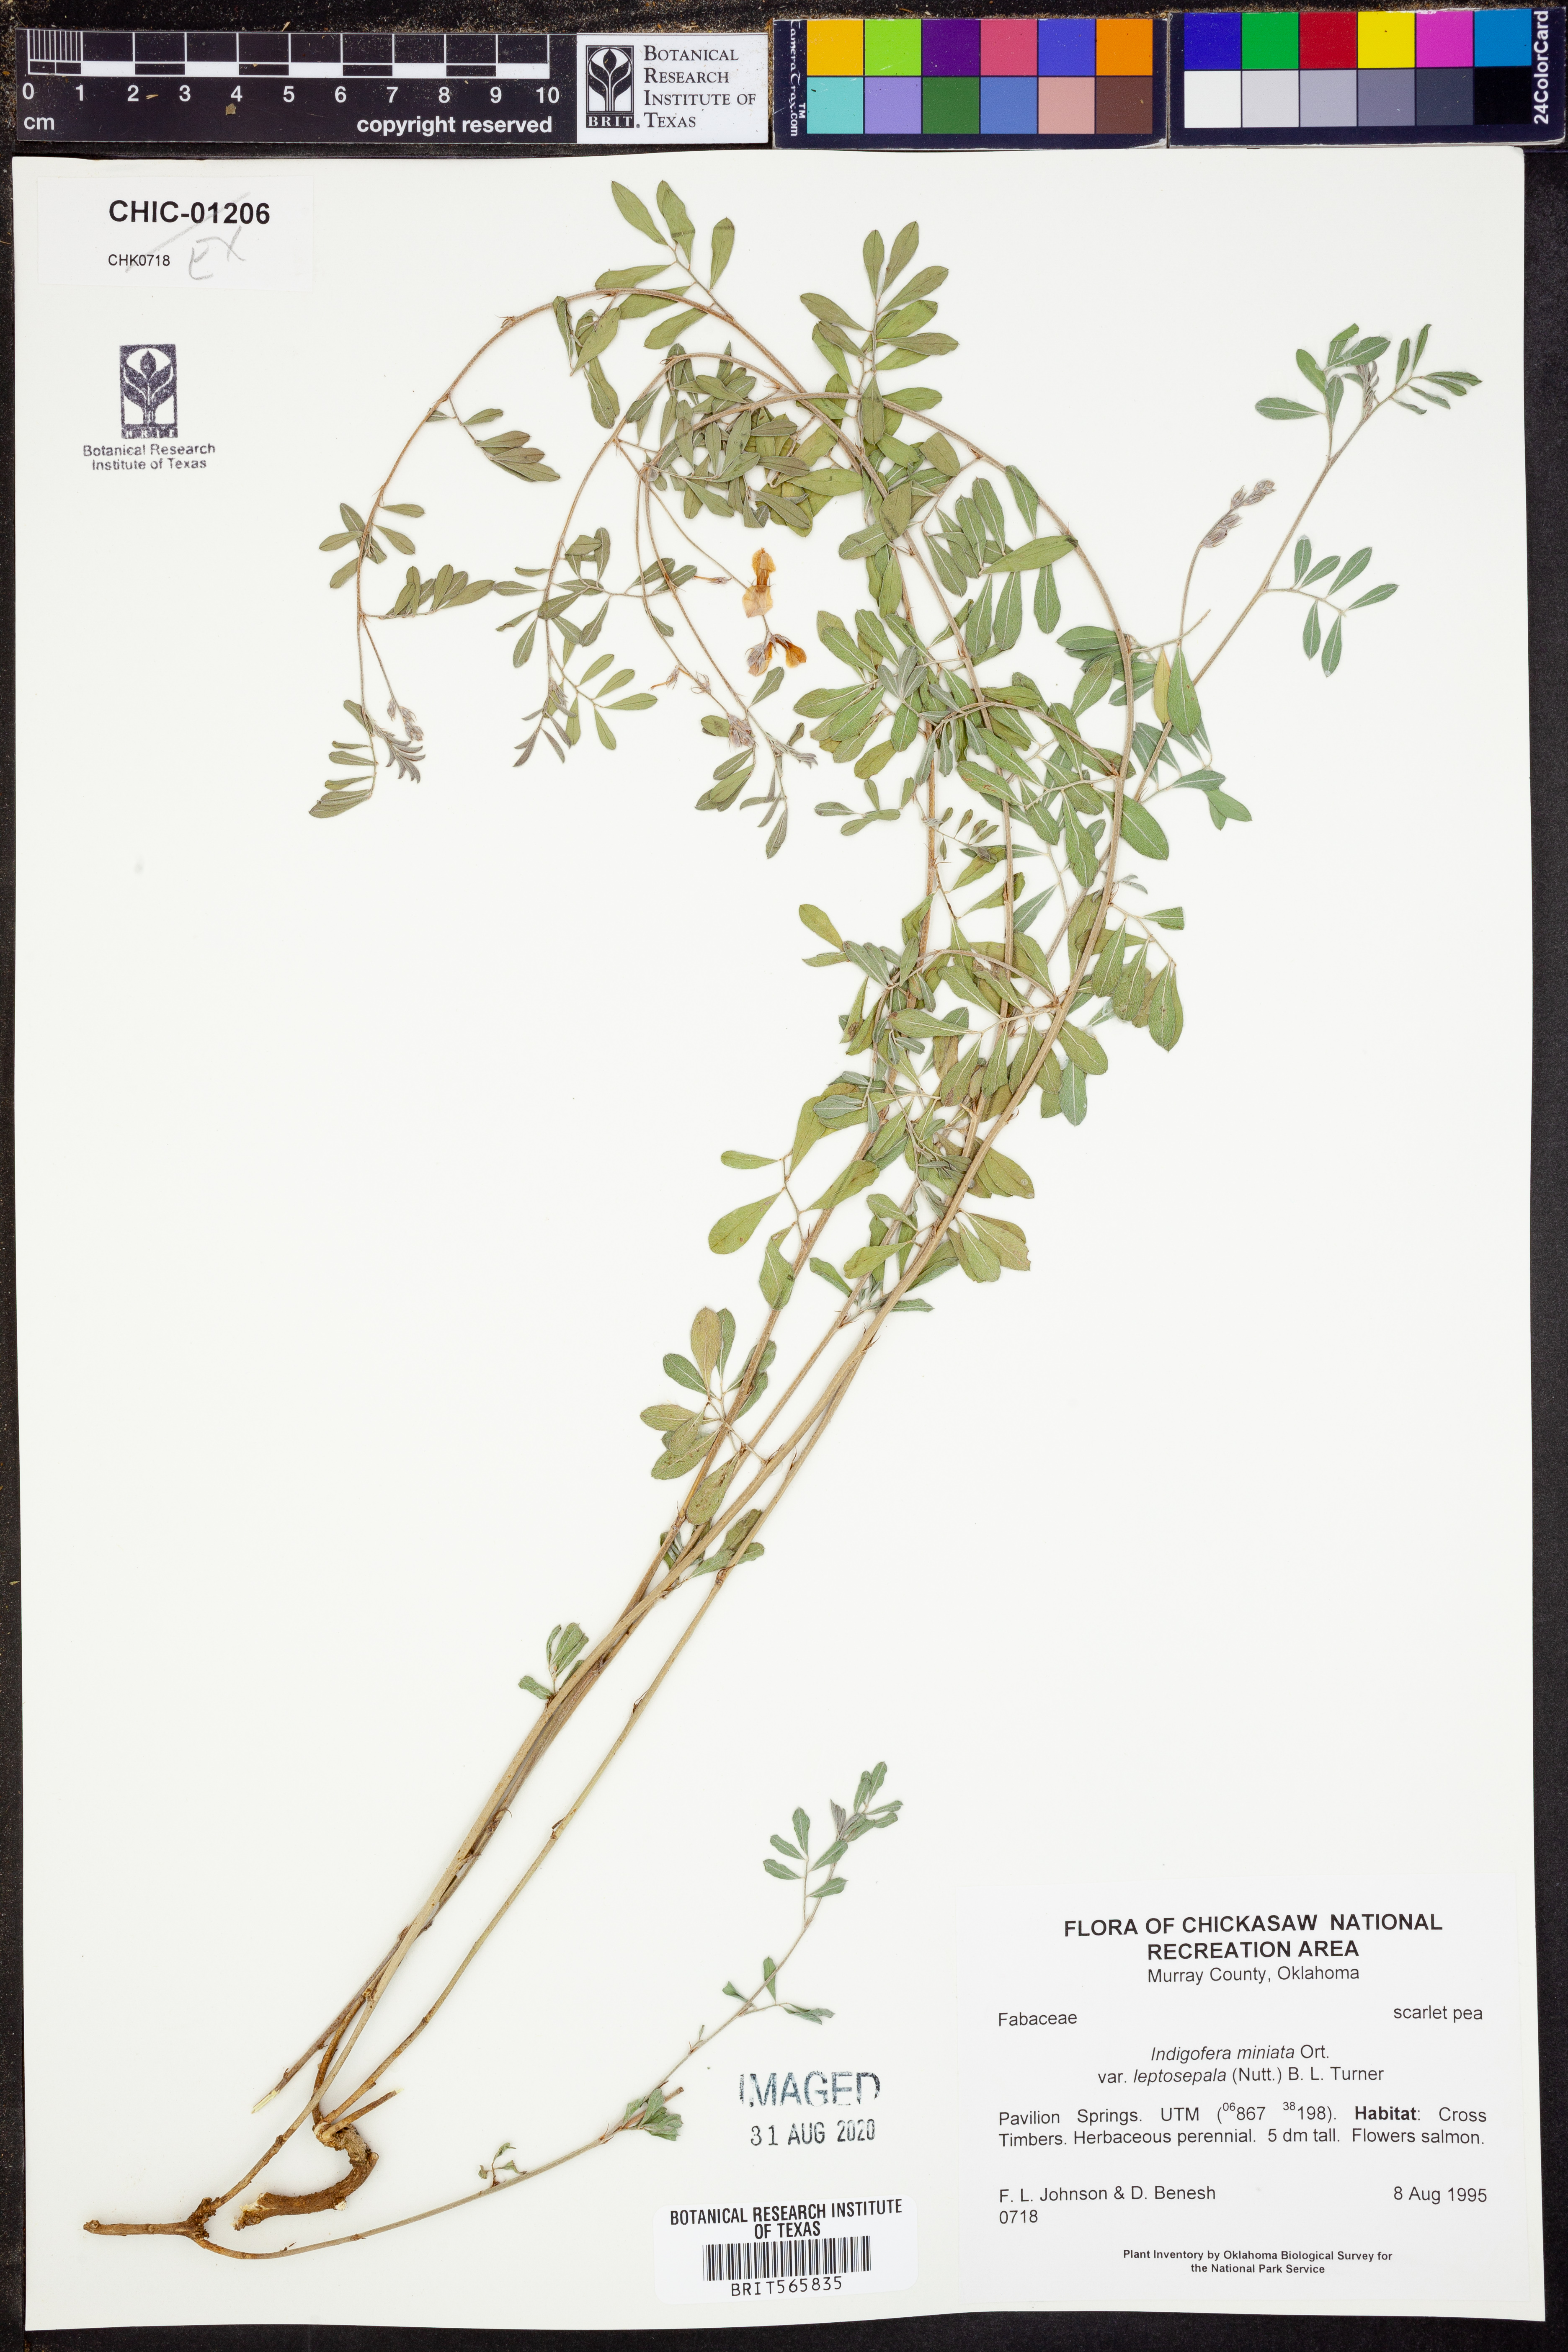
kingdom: Plantae
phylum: Tracheophyta
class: Magnoliopsida
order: Fabales
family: Fabaceae
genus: Indigofera
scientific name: Indigofera miniata
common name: Coast indigo
